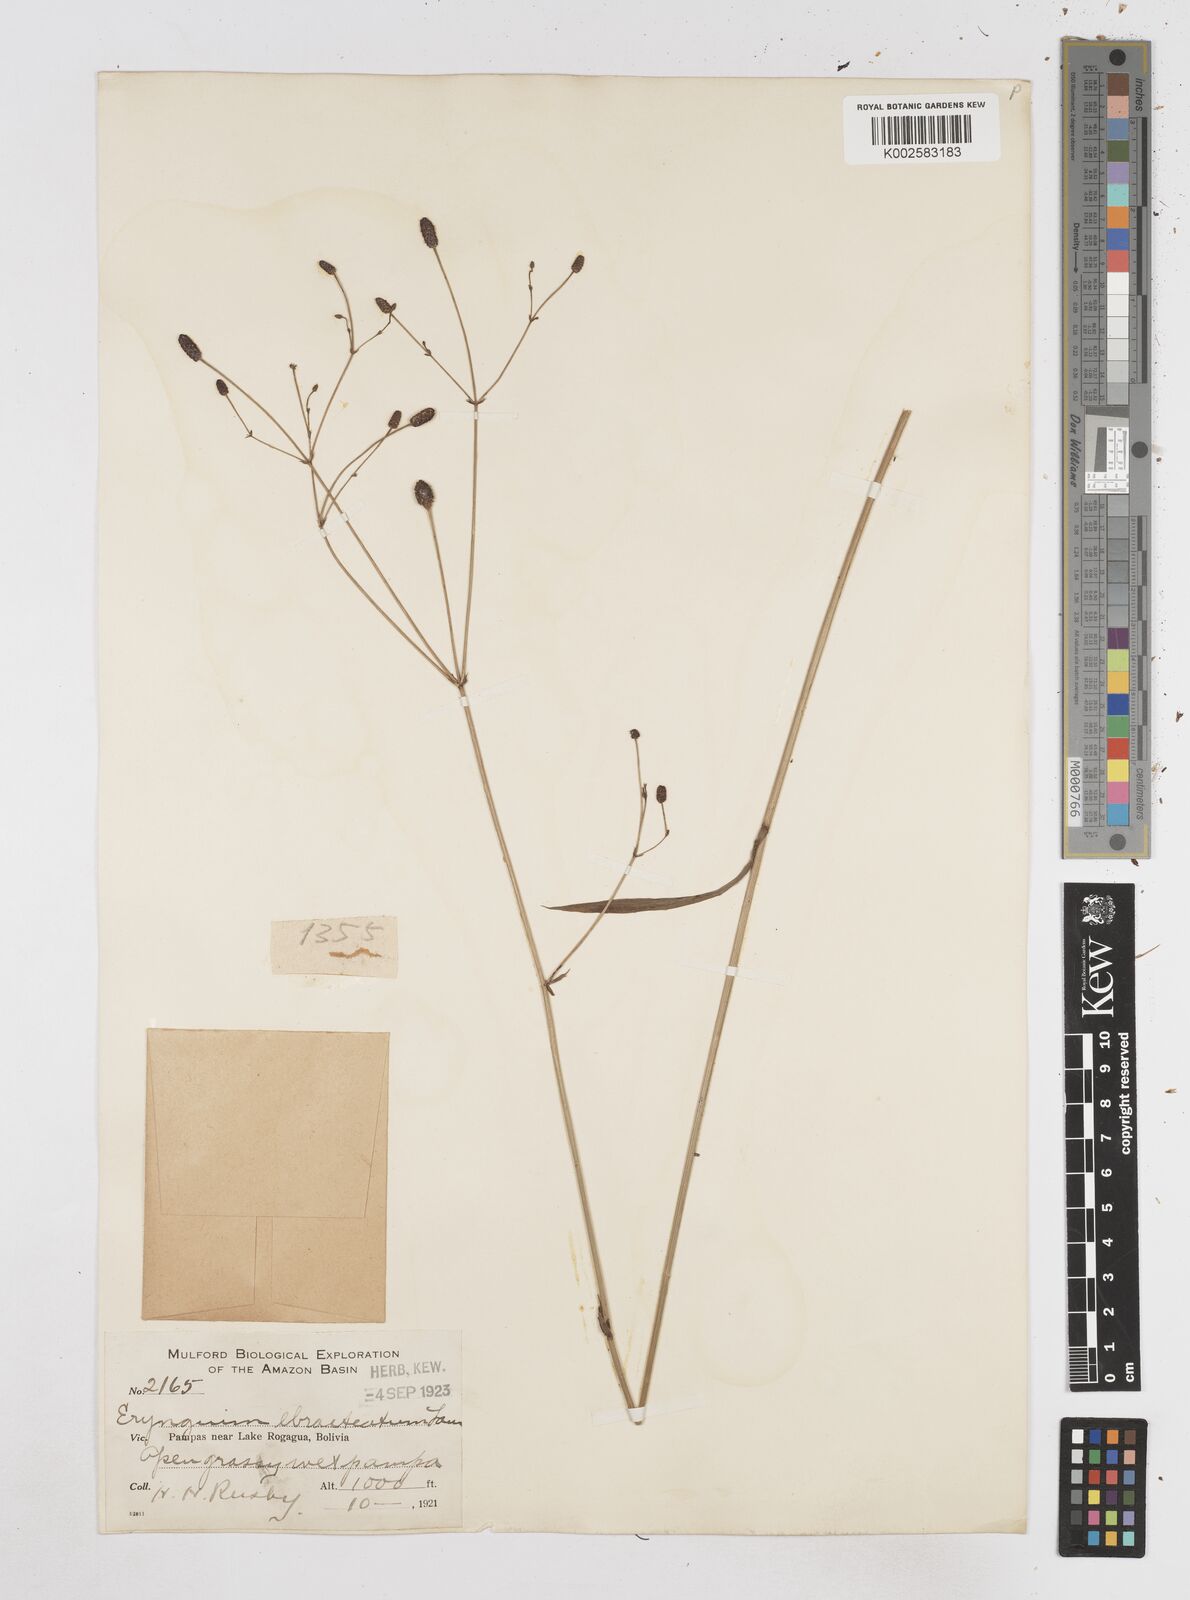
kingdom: Plantae
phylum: Tracheophyta
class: Magnoliopsida
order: Apiales
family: Apiaceae
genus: Eryngium
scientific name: Eryngium ebracteatum
